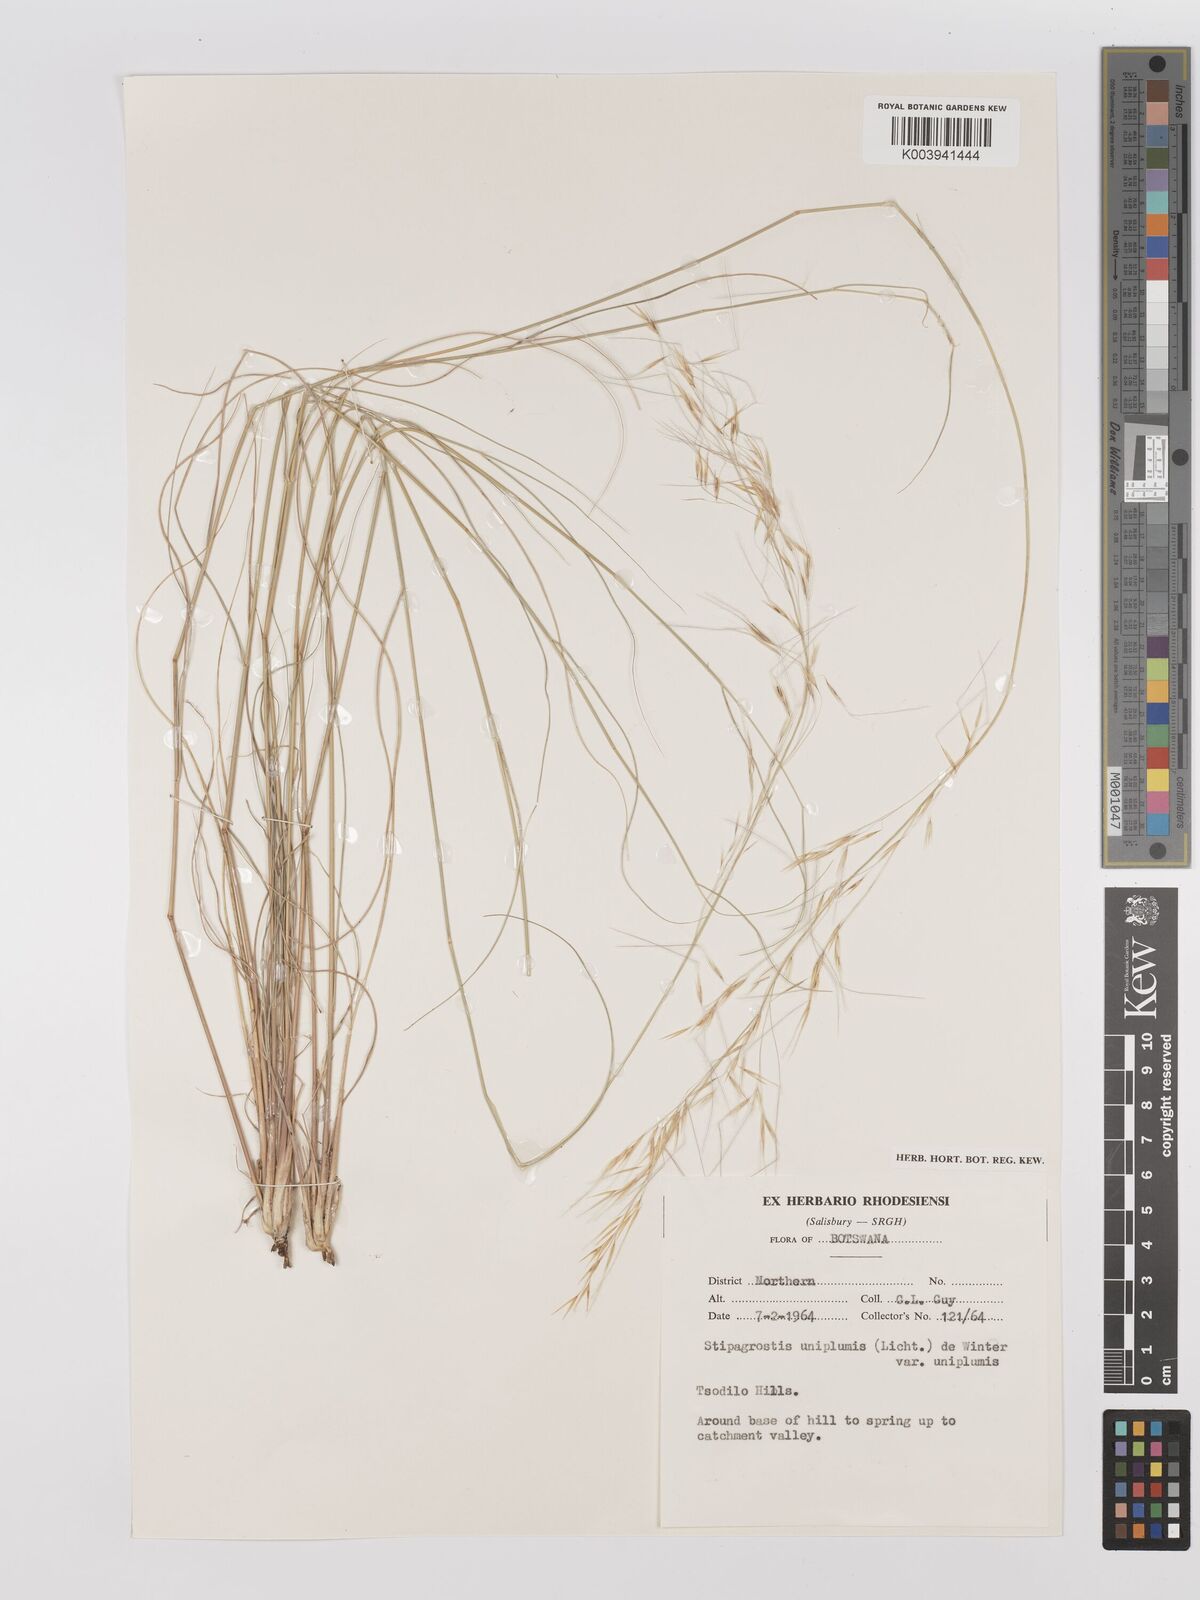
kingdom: Plantae
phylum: Tracheophyta
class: Liliopsida
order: Poales
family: Poaceae
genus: Stipagrostis
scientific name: Stipagrostis uniplumis
